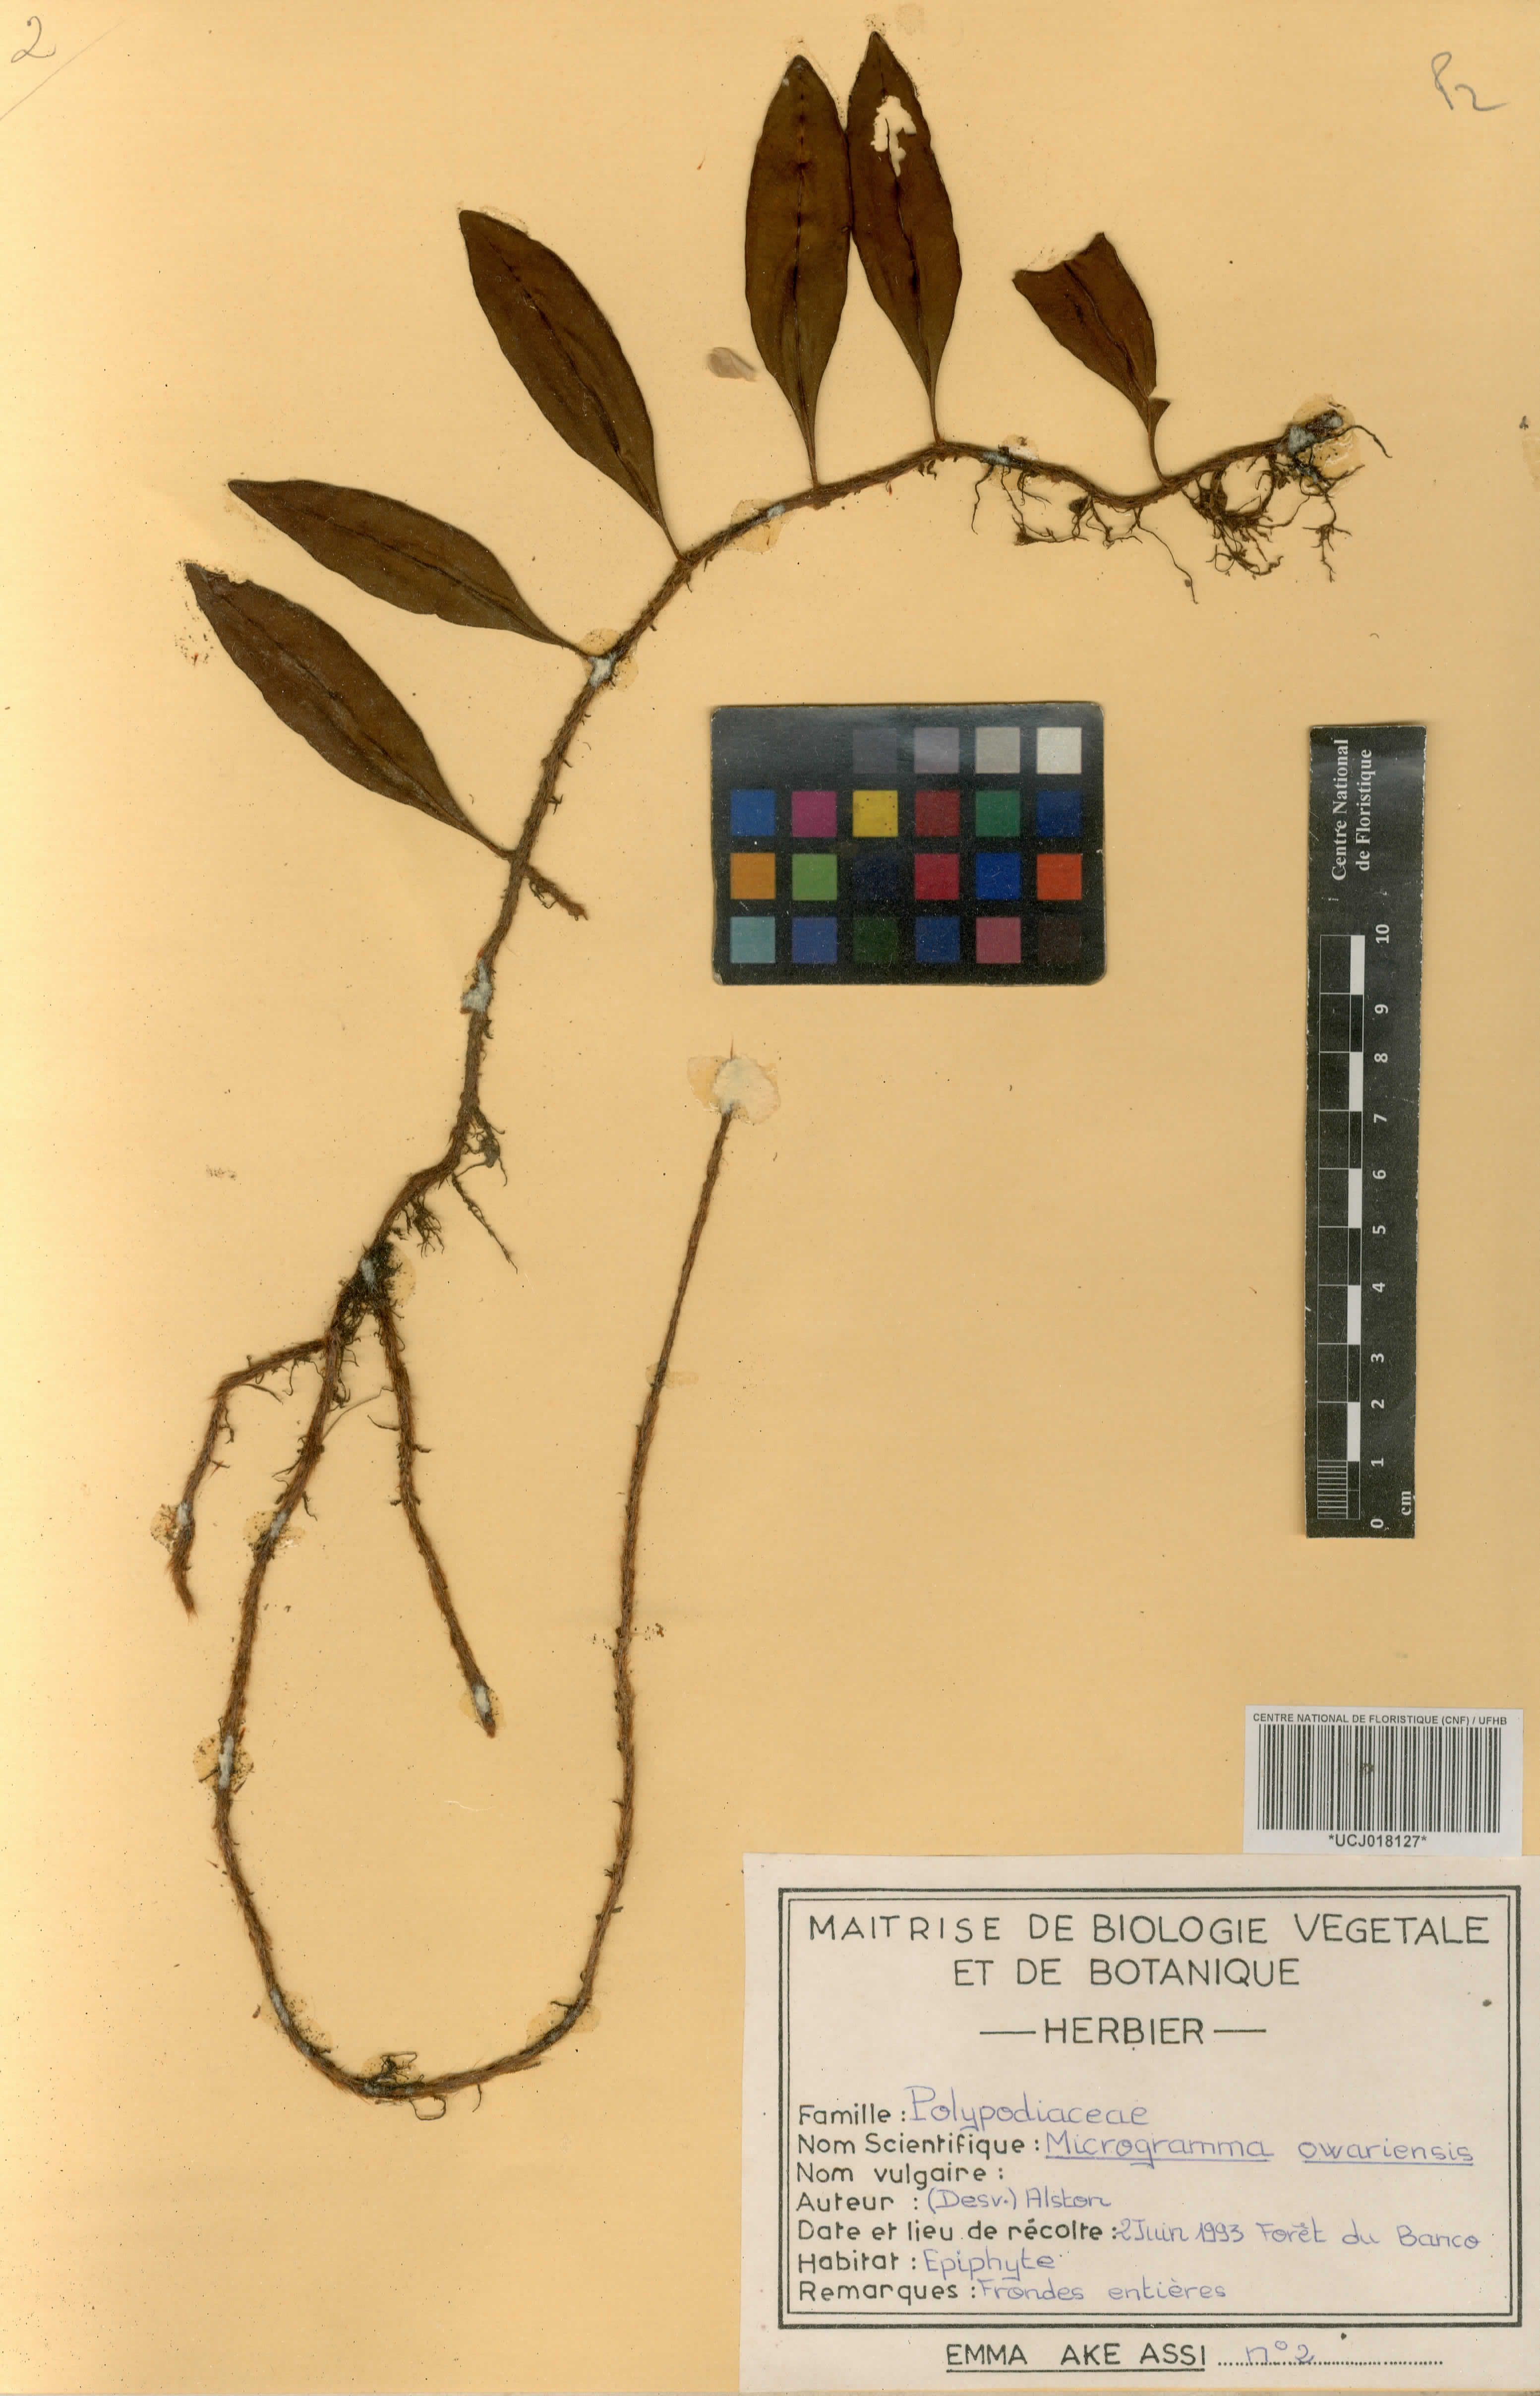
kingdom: Plantae
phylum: Tracheophyta
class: Polypodiopsida
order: Polypodiales
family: Polypodiaceae
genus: Microgramma
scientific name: Microgramma mauritiana
